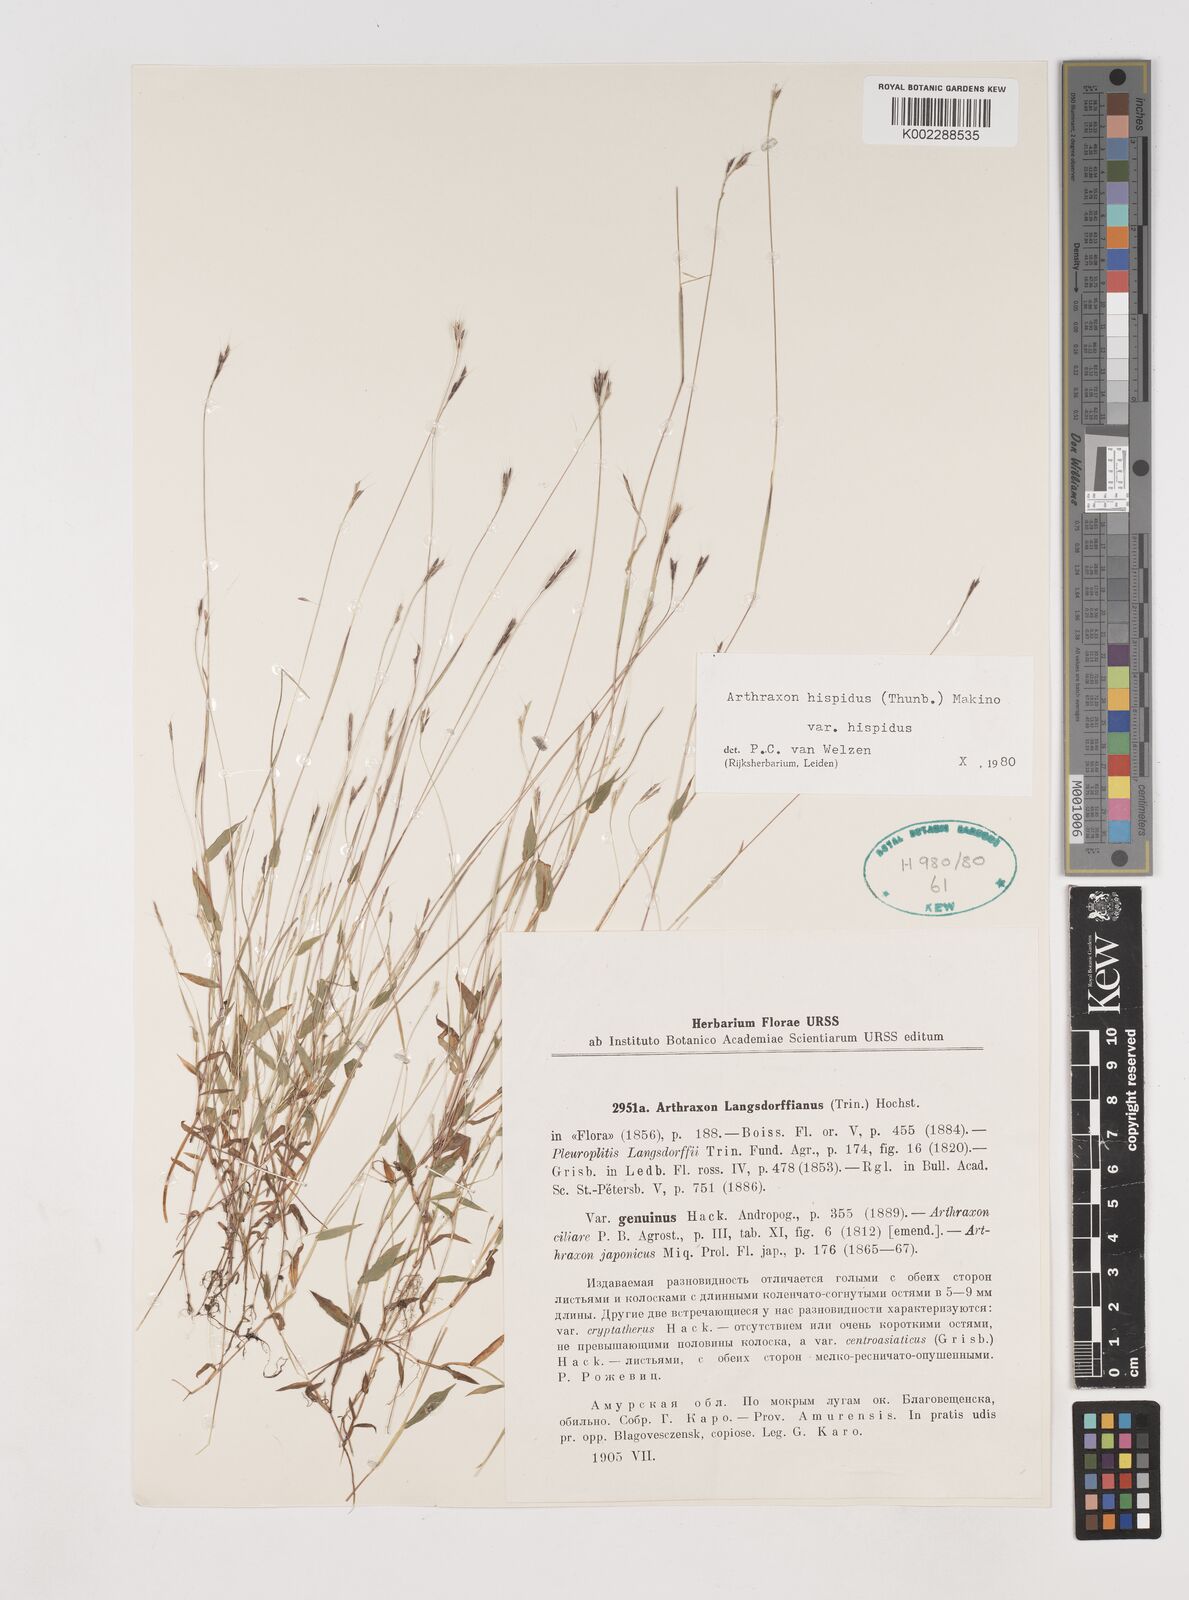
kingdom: Plantae
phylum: Tracheophyta
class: Liliopsida
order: Poales
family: Poaceae
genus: Arthraxon
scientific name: Arthraxon hispidus
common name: Small carpgrass
